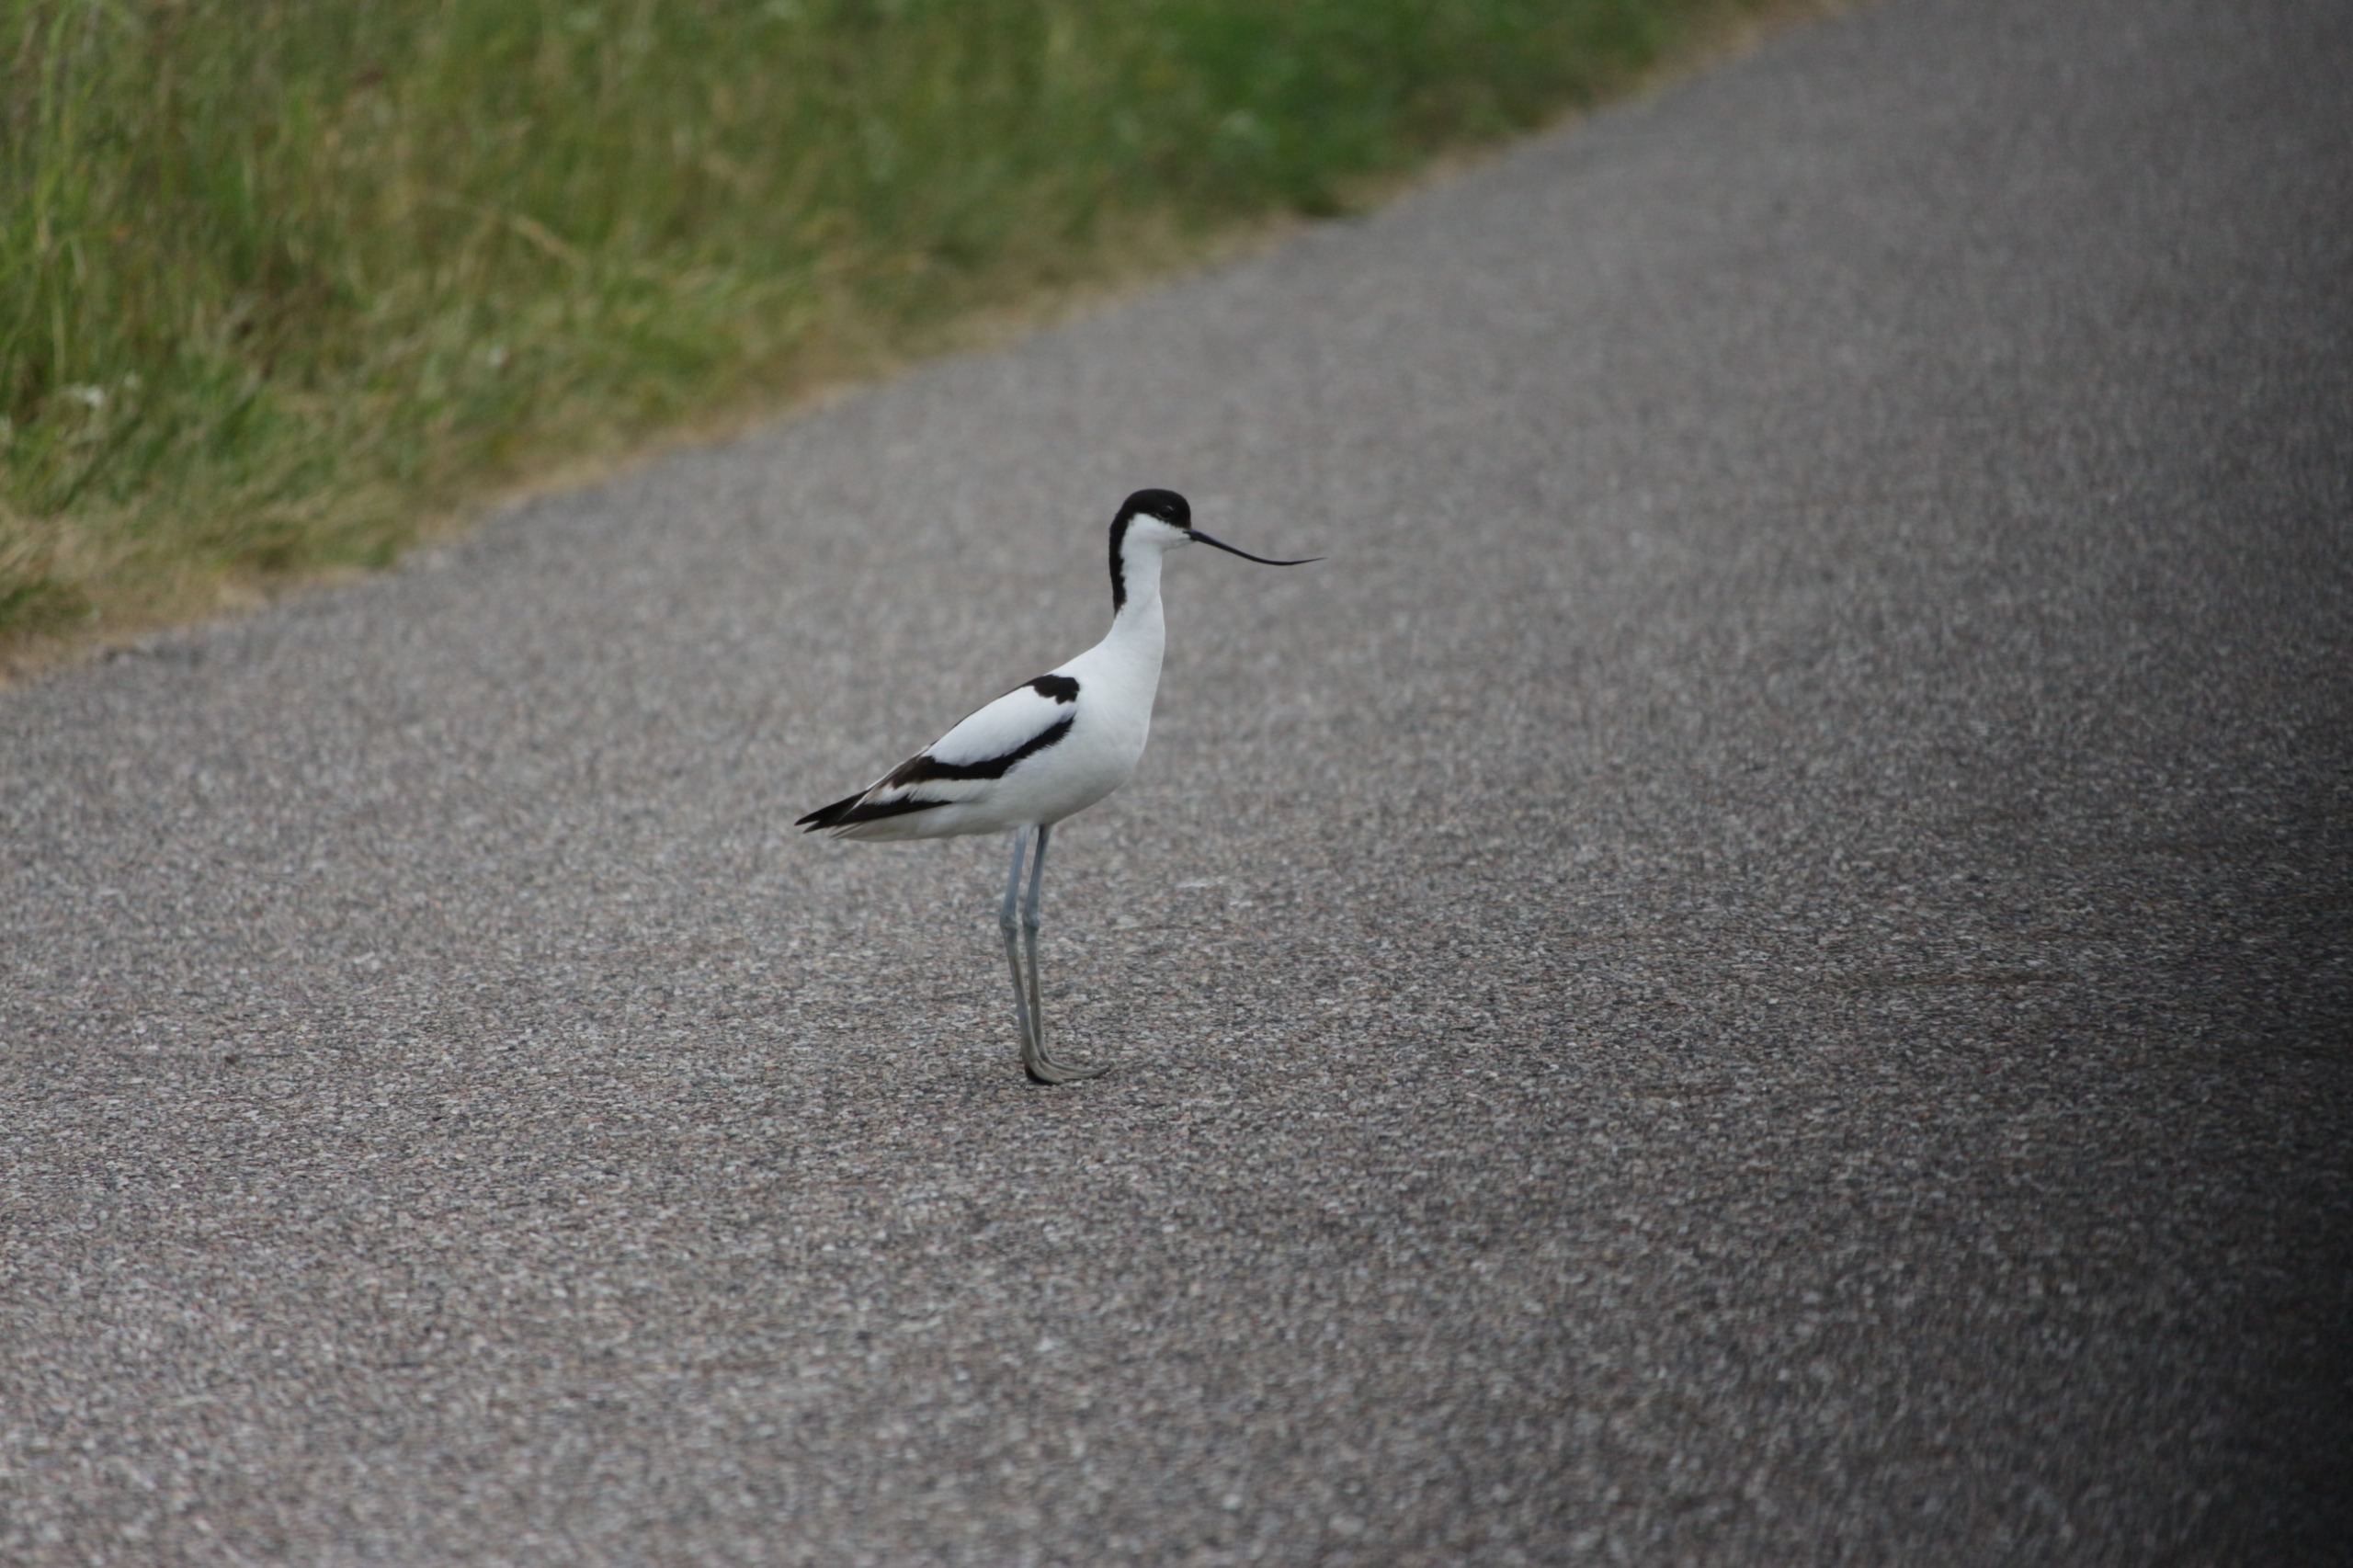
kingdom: Animalia
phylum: Chordata
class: Aves
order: Charadriiformes
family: Recurvirostridae
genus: Recurvirostra
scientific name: Recurvirostra avosetta
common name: Klyde
